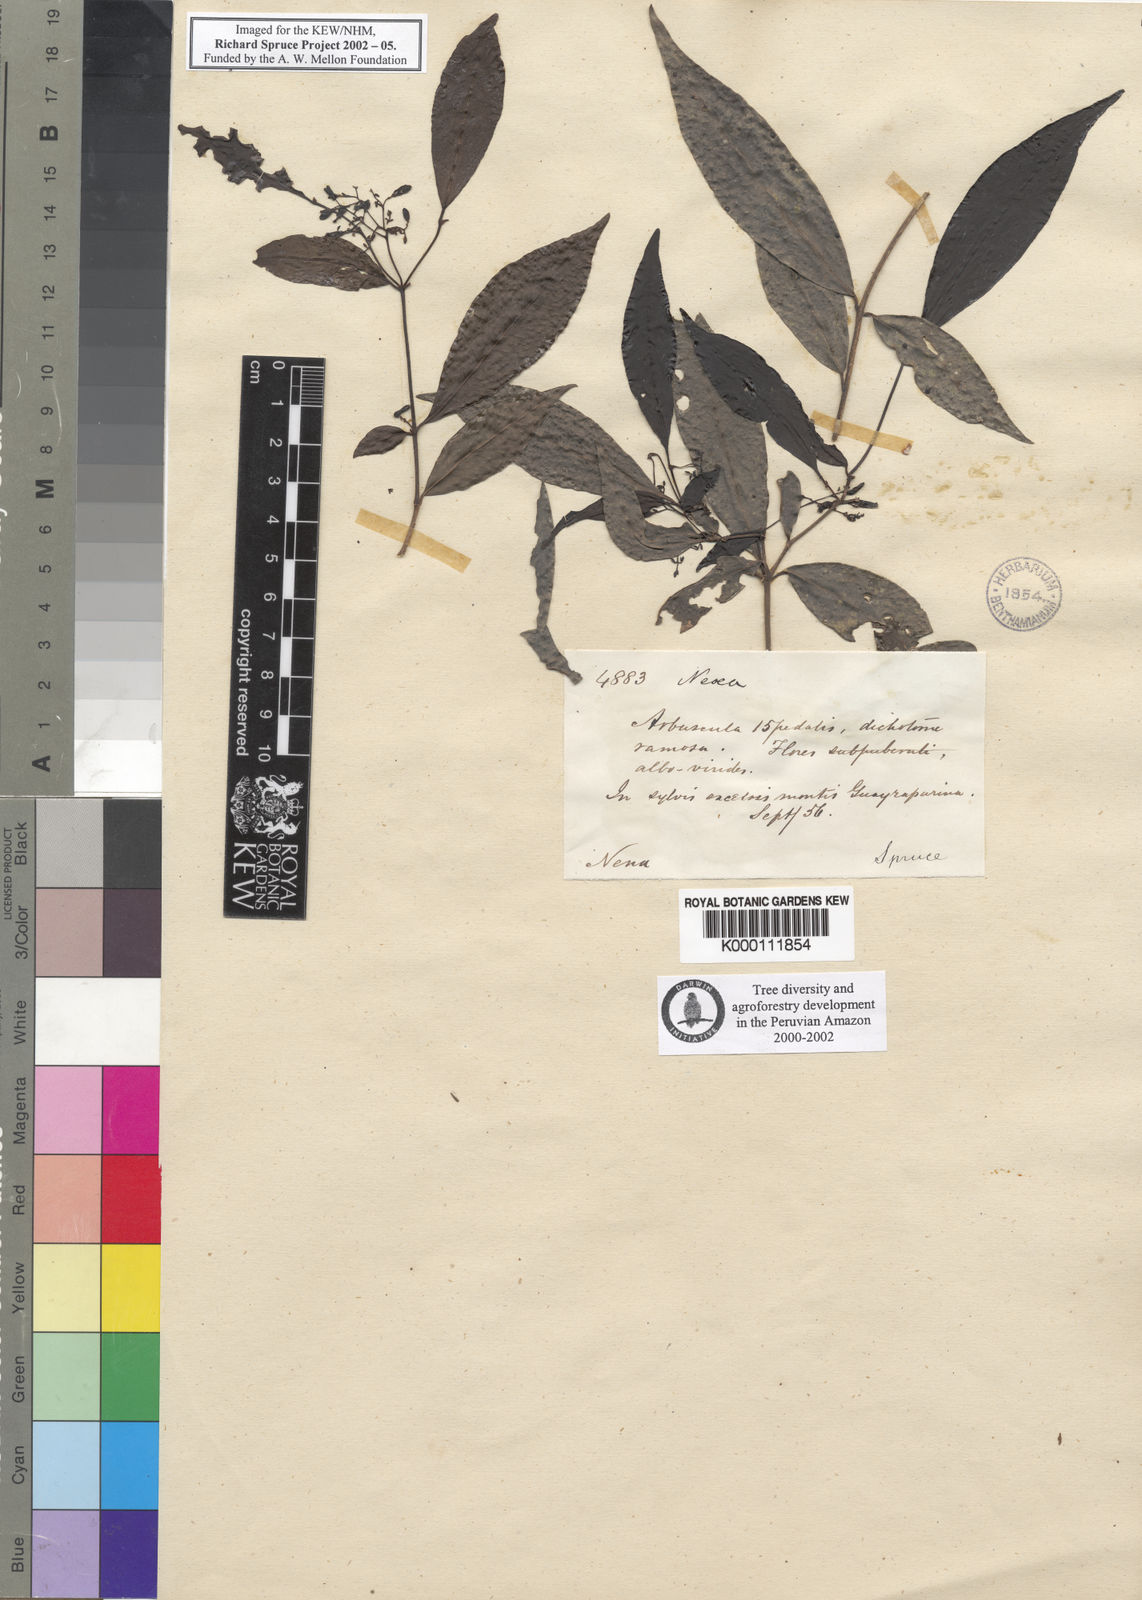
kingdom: Plantae
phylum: Tracheophyta
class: Magnoliopsida
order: Caryophyllales
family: Nyctaginaceae
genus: Neea
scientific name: Neea
